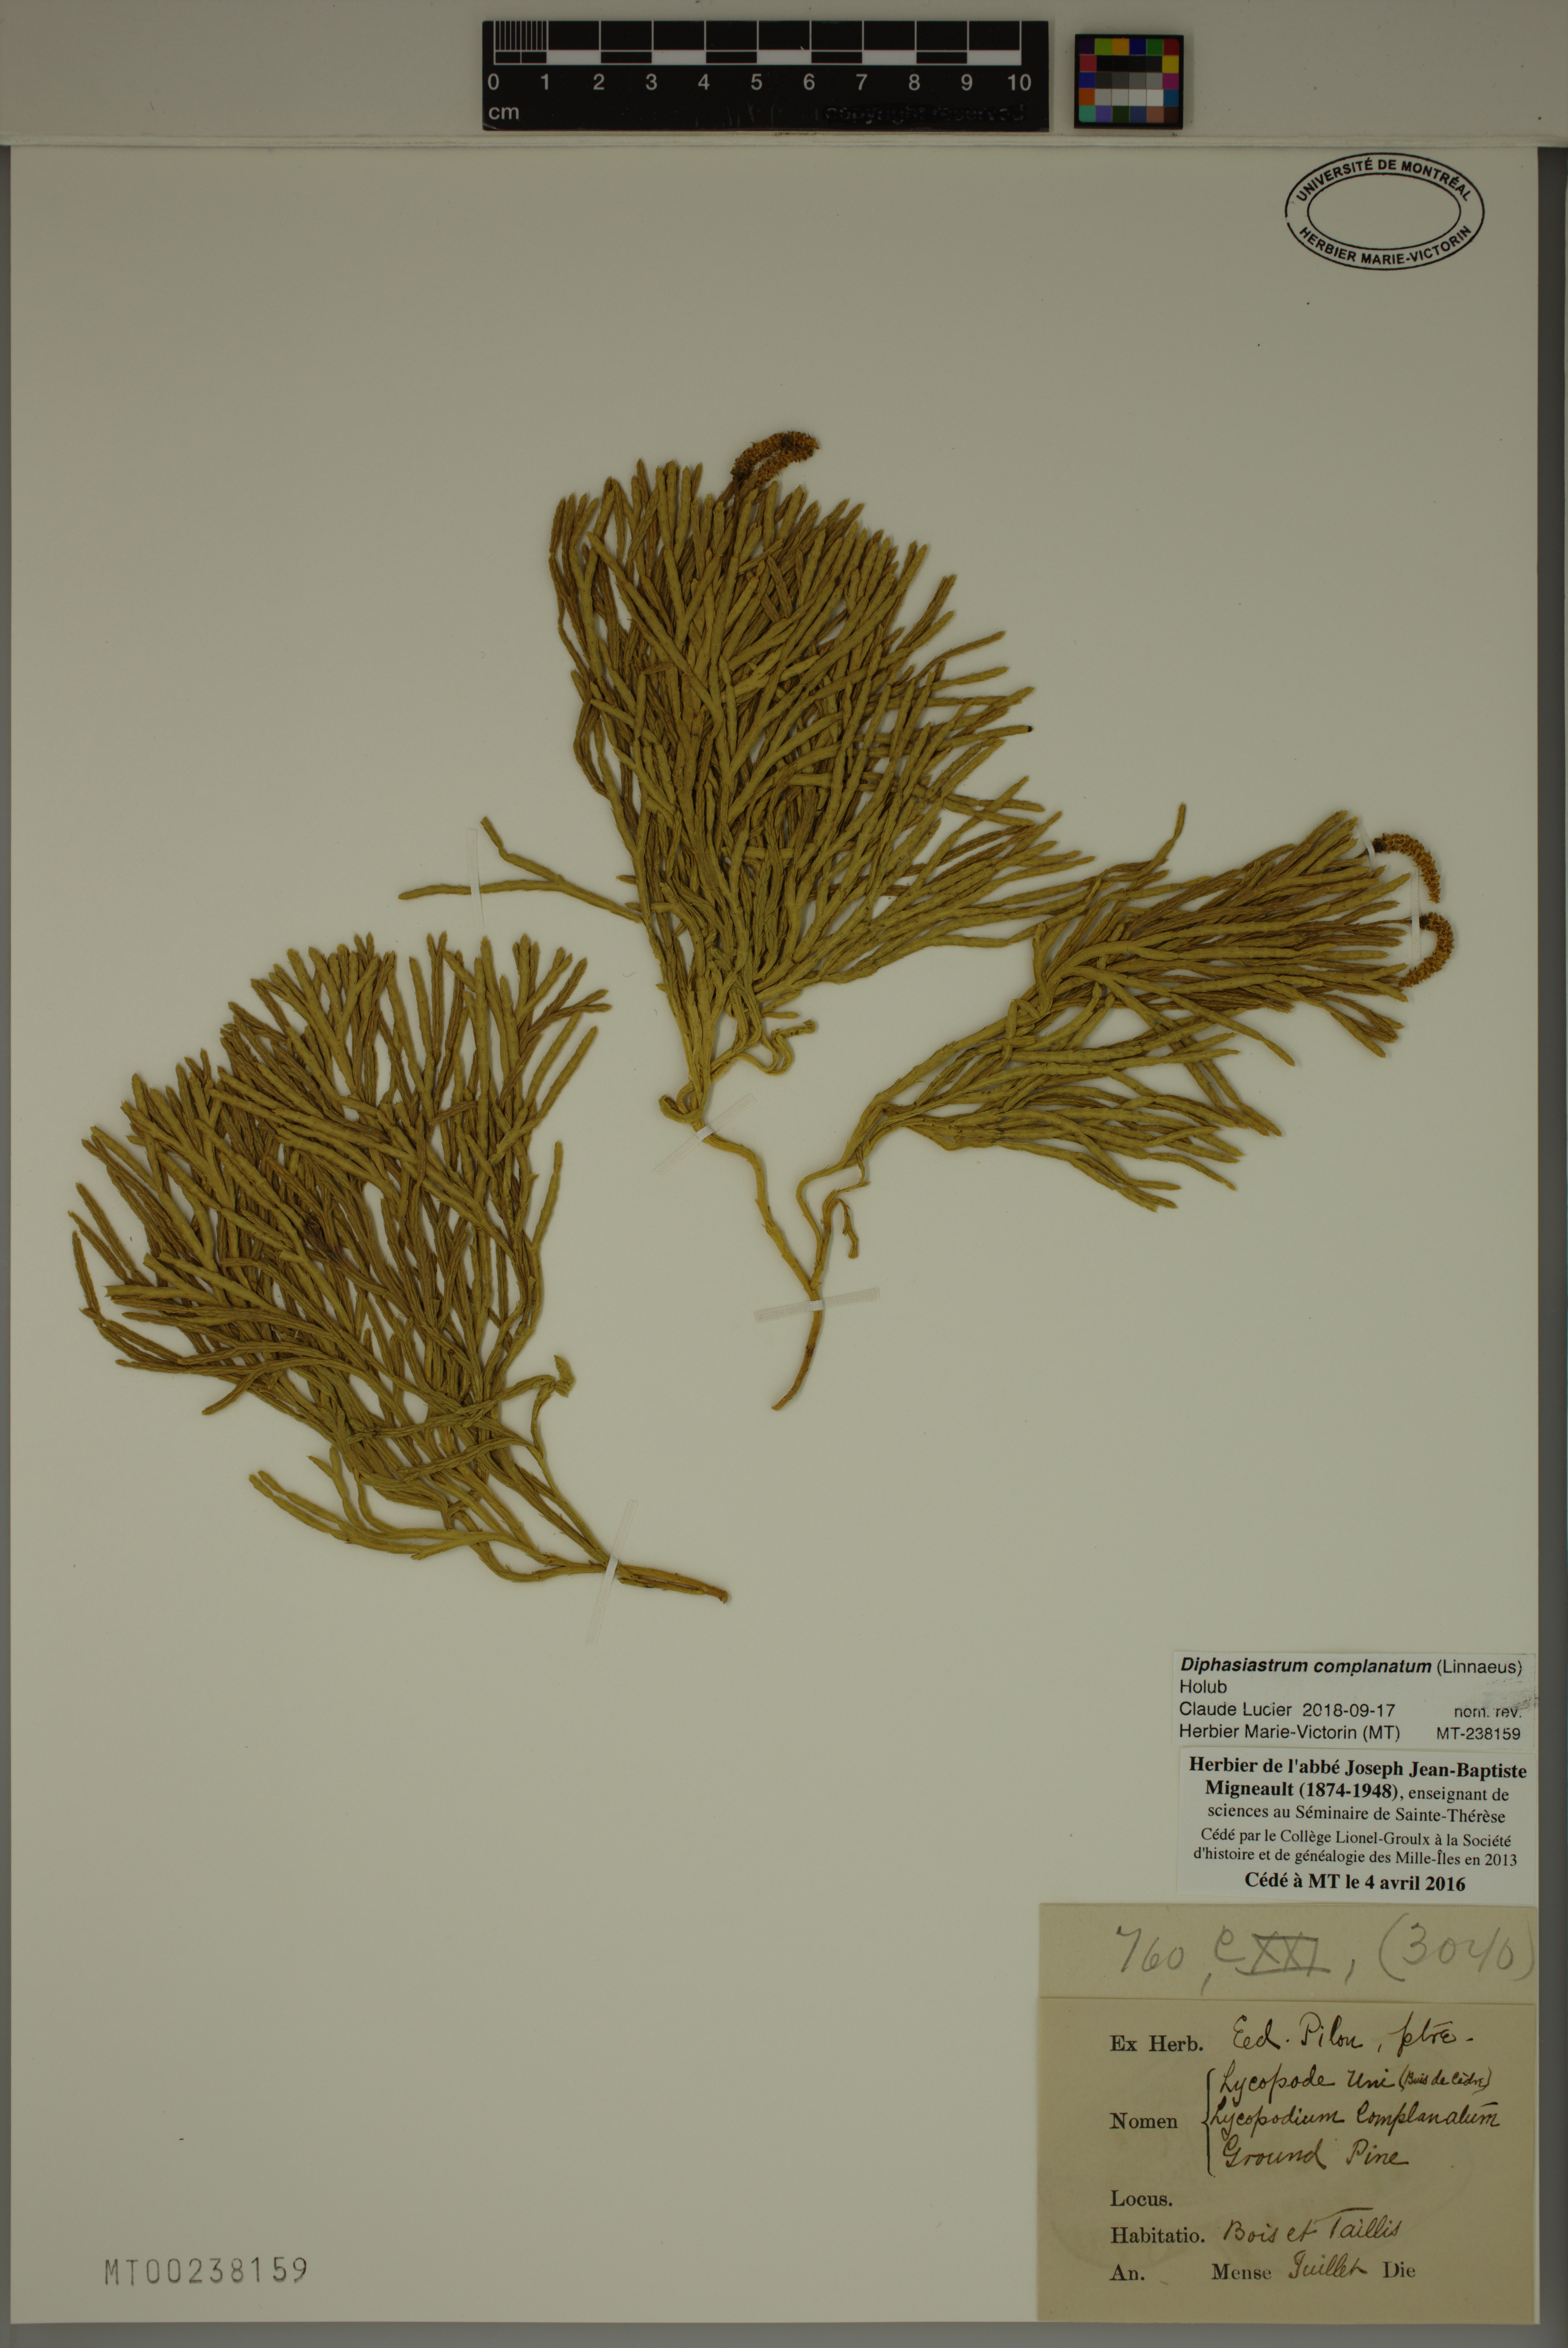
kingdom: Plantae
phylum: Tracheophyta
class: Lycopodiopsida
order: Lycopodiales
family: Lycopodiaceae
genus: Diphasiastrum
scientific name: Diphasiastrum complanatum
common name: Northern running-pine
